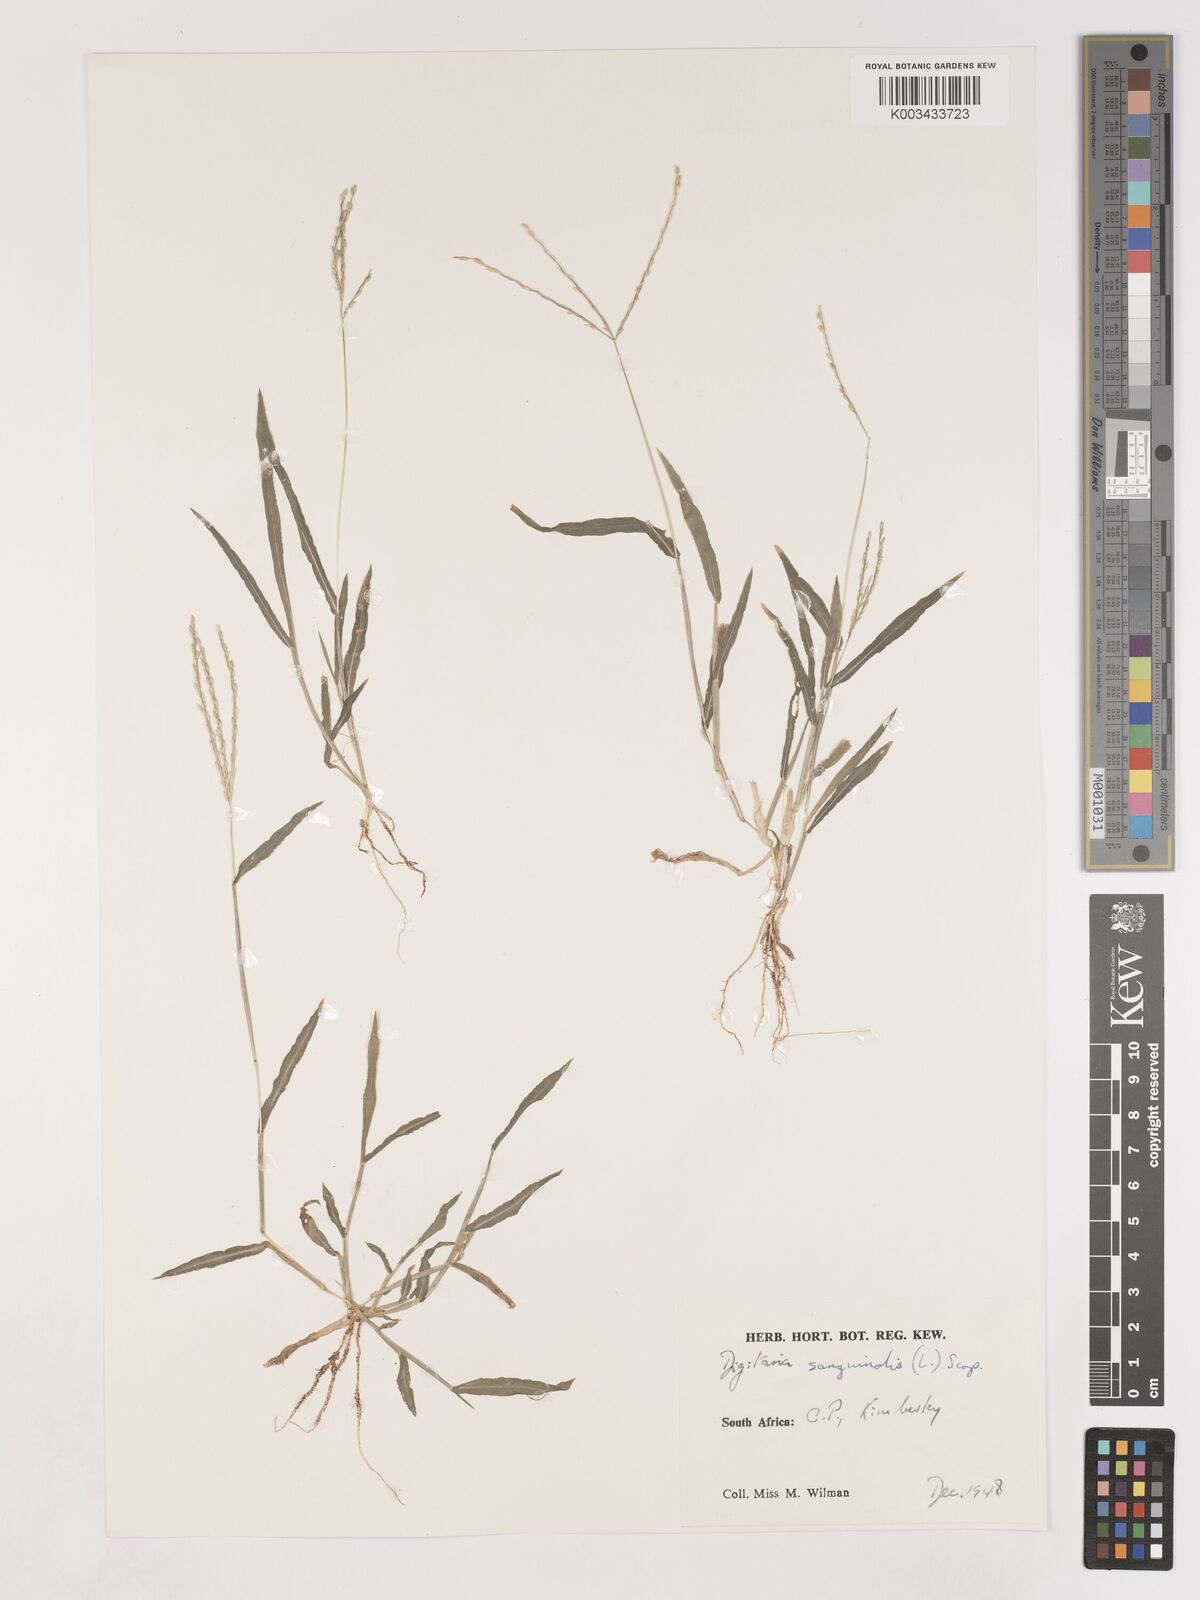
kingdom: Plantae
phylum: Tracheophyta
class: Liliopsida
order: Poales
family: Poaceae
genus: Digitaria
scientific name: Digitaria sanguinalis
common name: Hairy crabgrass
